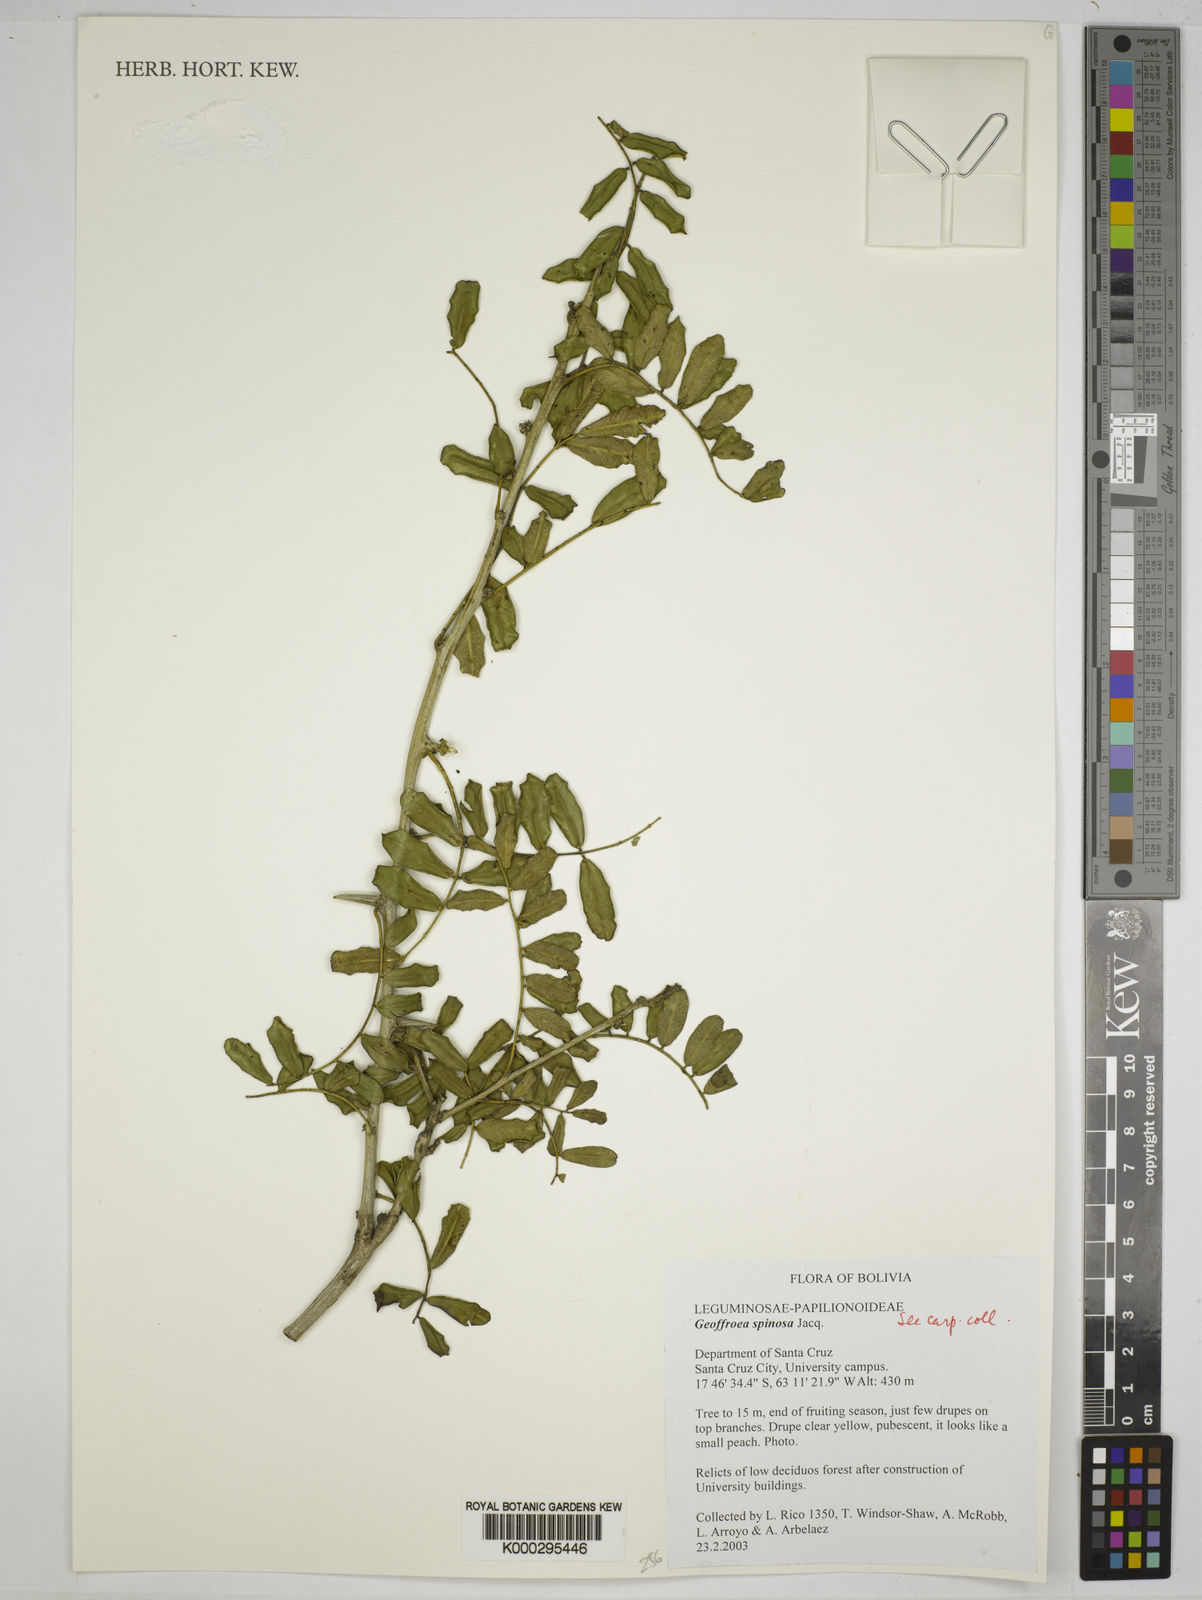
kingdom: Plantae
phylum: Tracheophyta
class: Magnoliopsida
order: Fabales
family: Fabaceae
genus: Geoffroea
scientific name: Geoffroea spinosa
